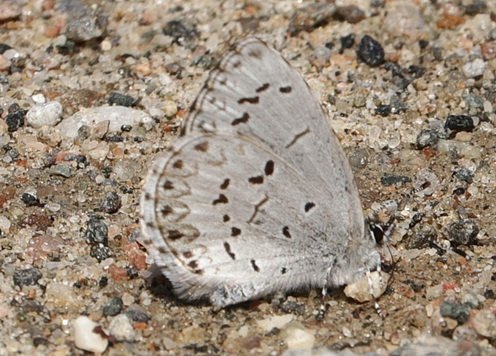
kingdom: Animalia
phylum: Arthropoda
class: Insecta
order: Lepidoptera
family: Lycaenidae
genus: Celastrina
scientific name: Celastrina lucia
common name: Northern Spring Azure
